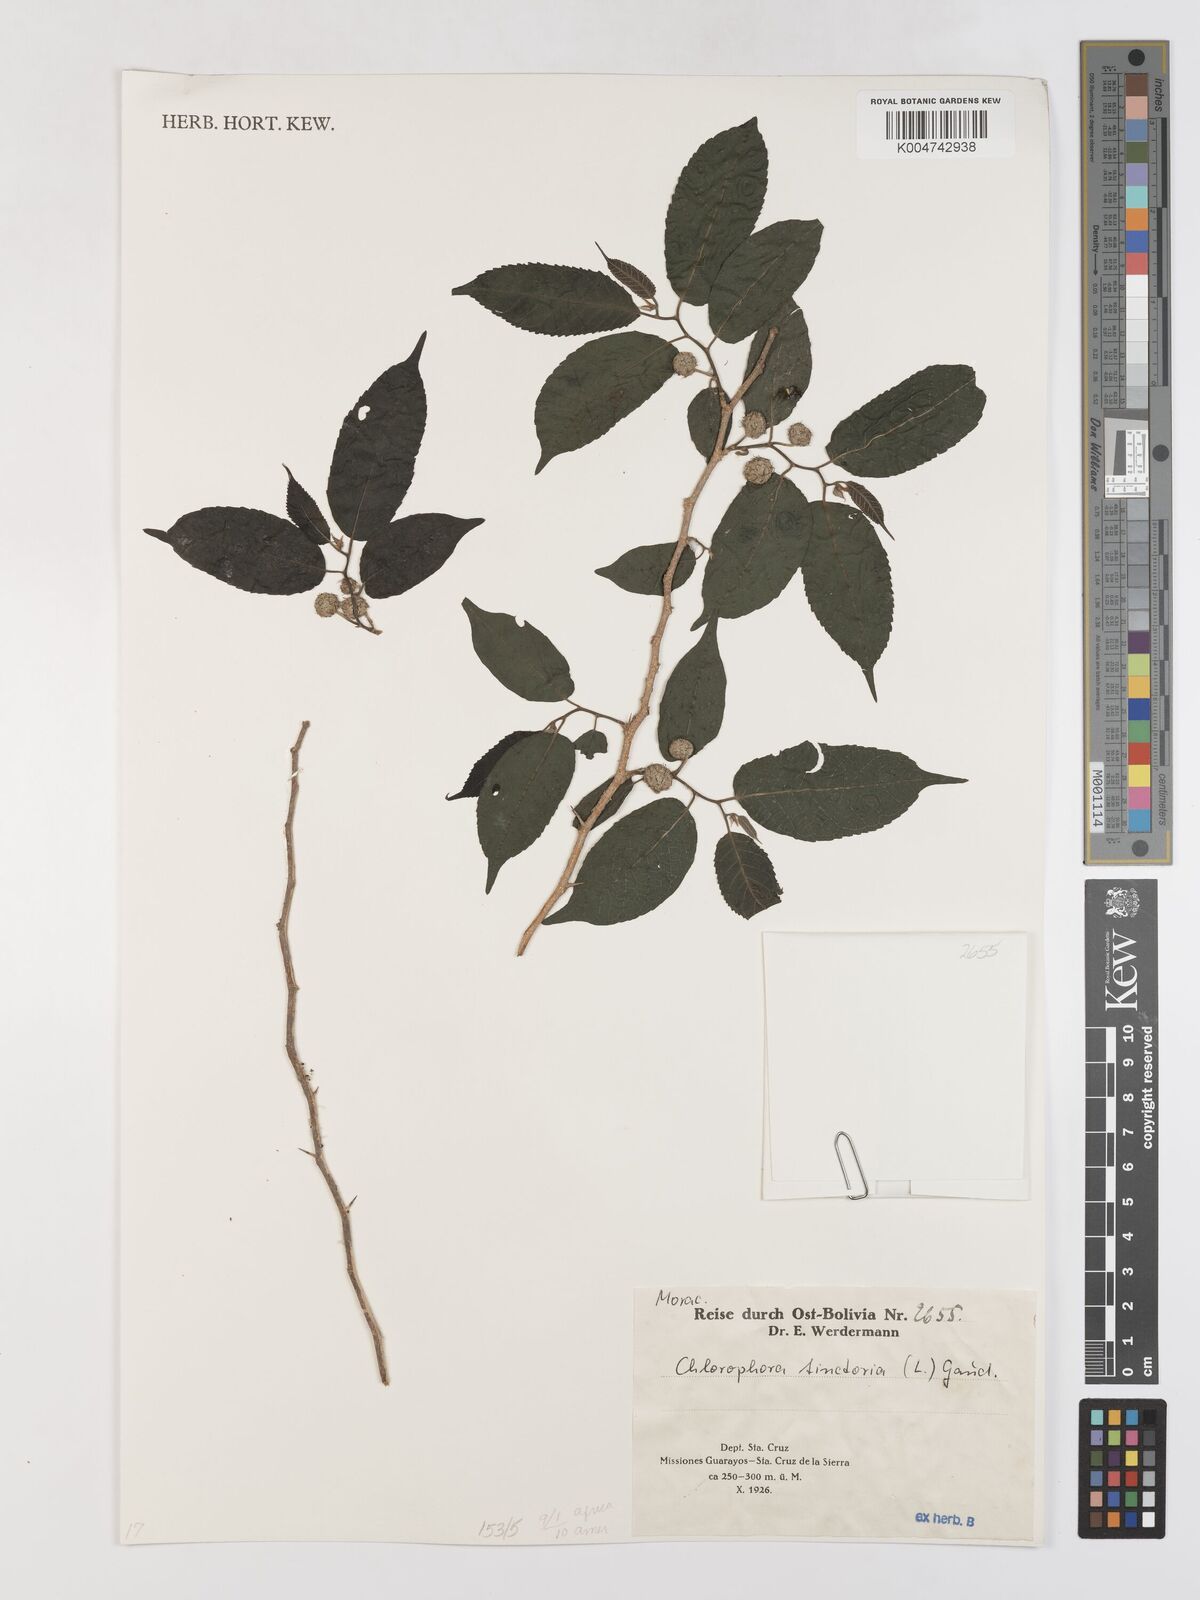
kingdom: Plantae
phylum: Tracheophyta
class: Magnoliopsida
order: Rosales
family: Moraceae
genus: Maclura
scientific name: Maclura tinctoria
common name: Old fustic
